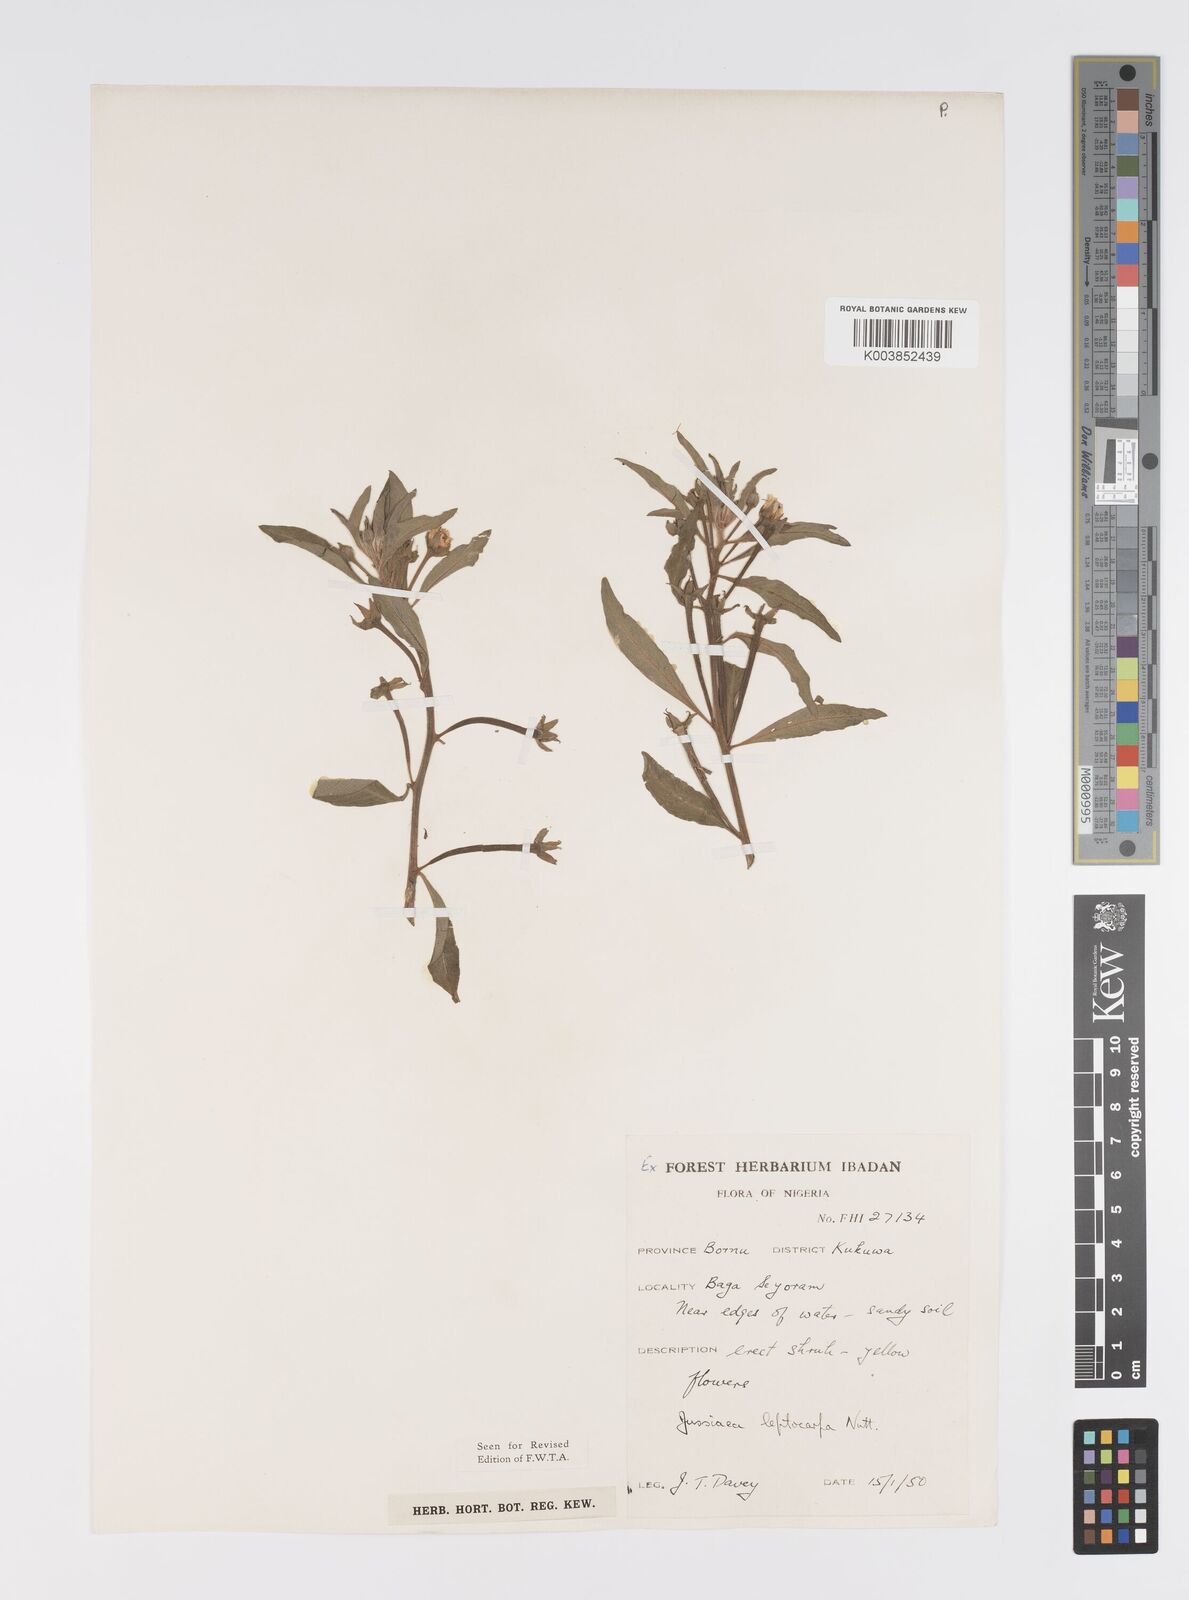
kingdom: Plantae
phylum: Tracheophyta
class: Magnoliopsida
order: Myrtales
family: Onagraceae
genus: Ludwigia
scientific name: Ludwigia leptocarpa
